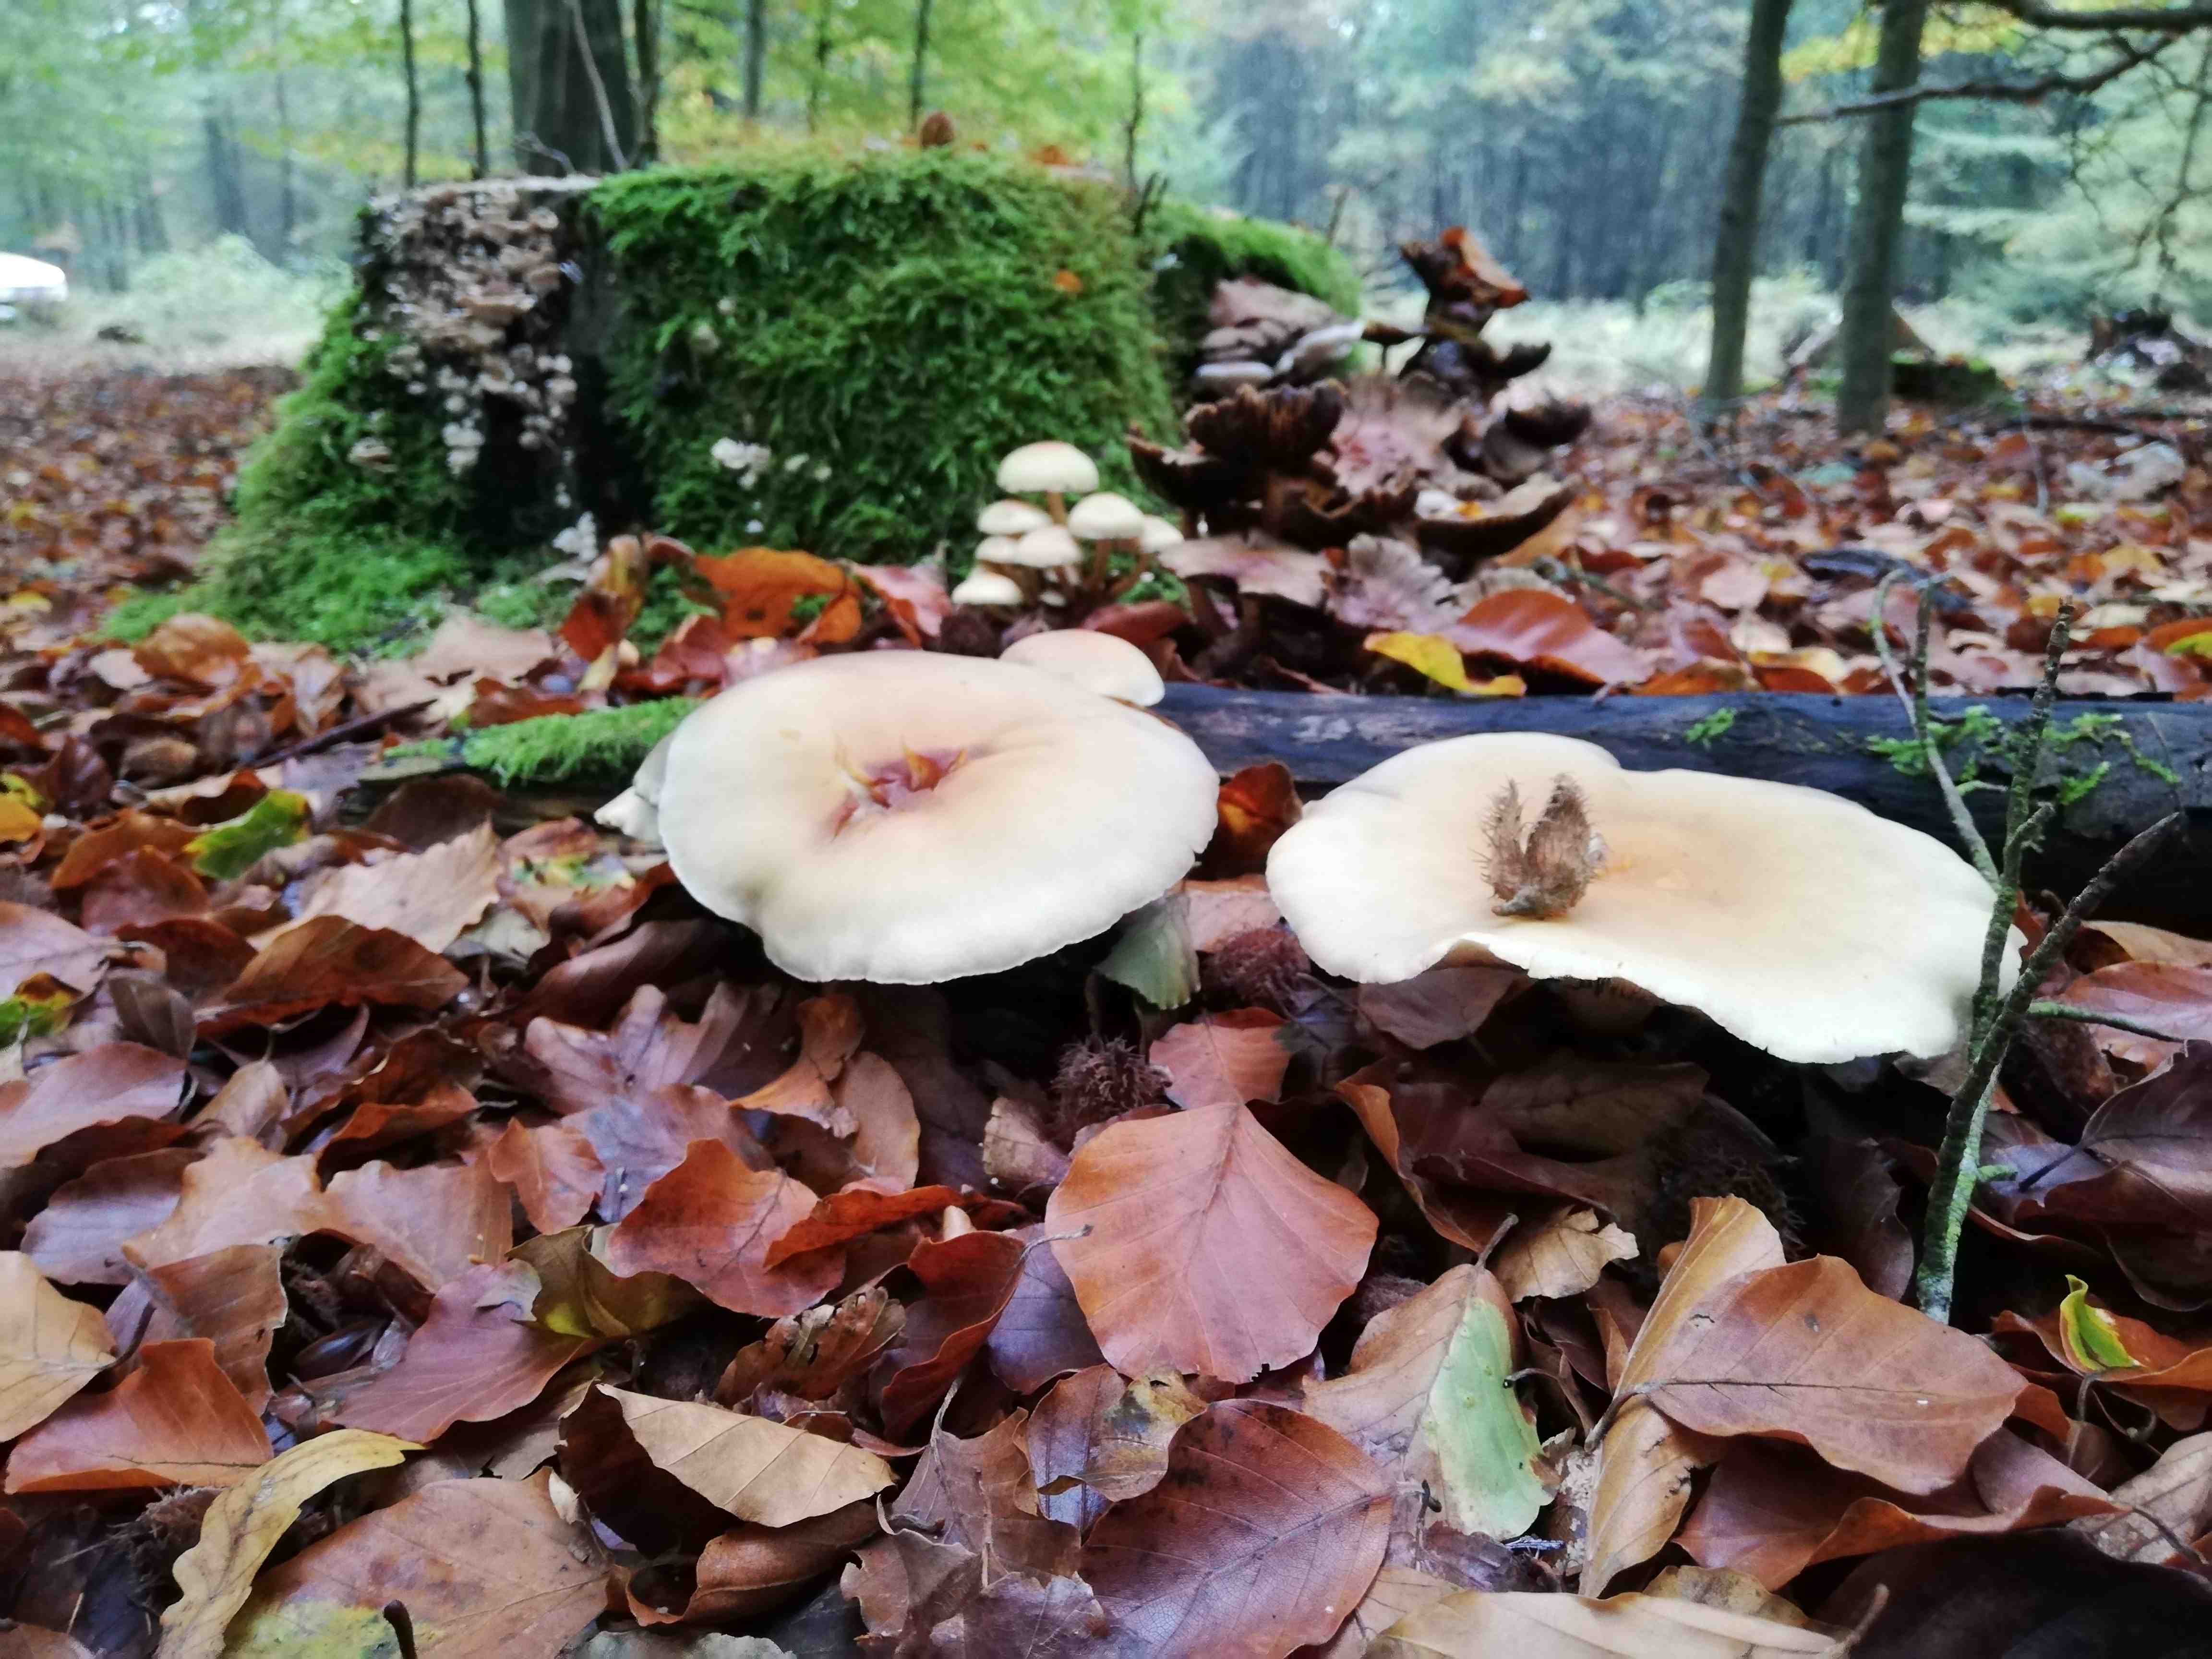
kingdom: Fungi
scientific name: Fungi
